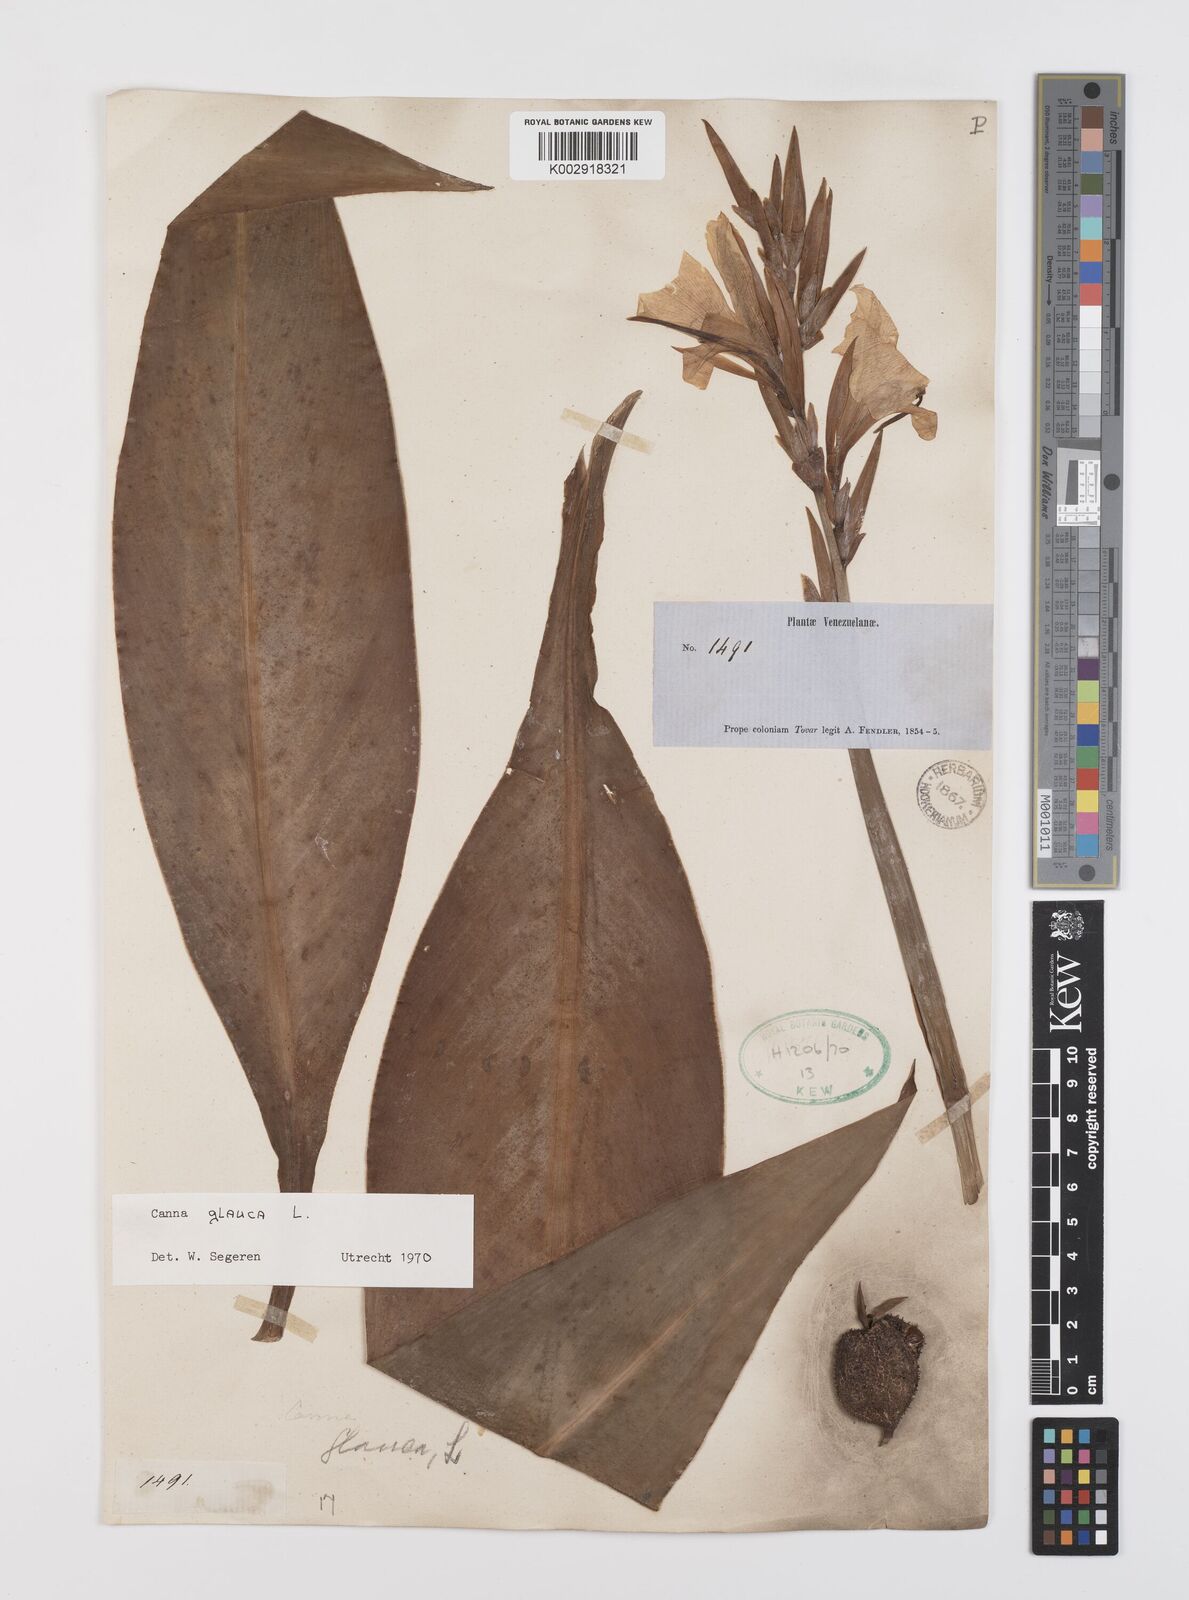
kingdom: Plantae
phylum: Tracheophyta
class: Liliopsida
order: Zingiberales
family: Cannaceae
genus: Canna
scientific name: Canna glauca
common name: Louisiana canna
